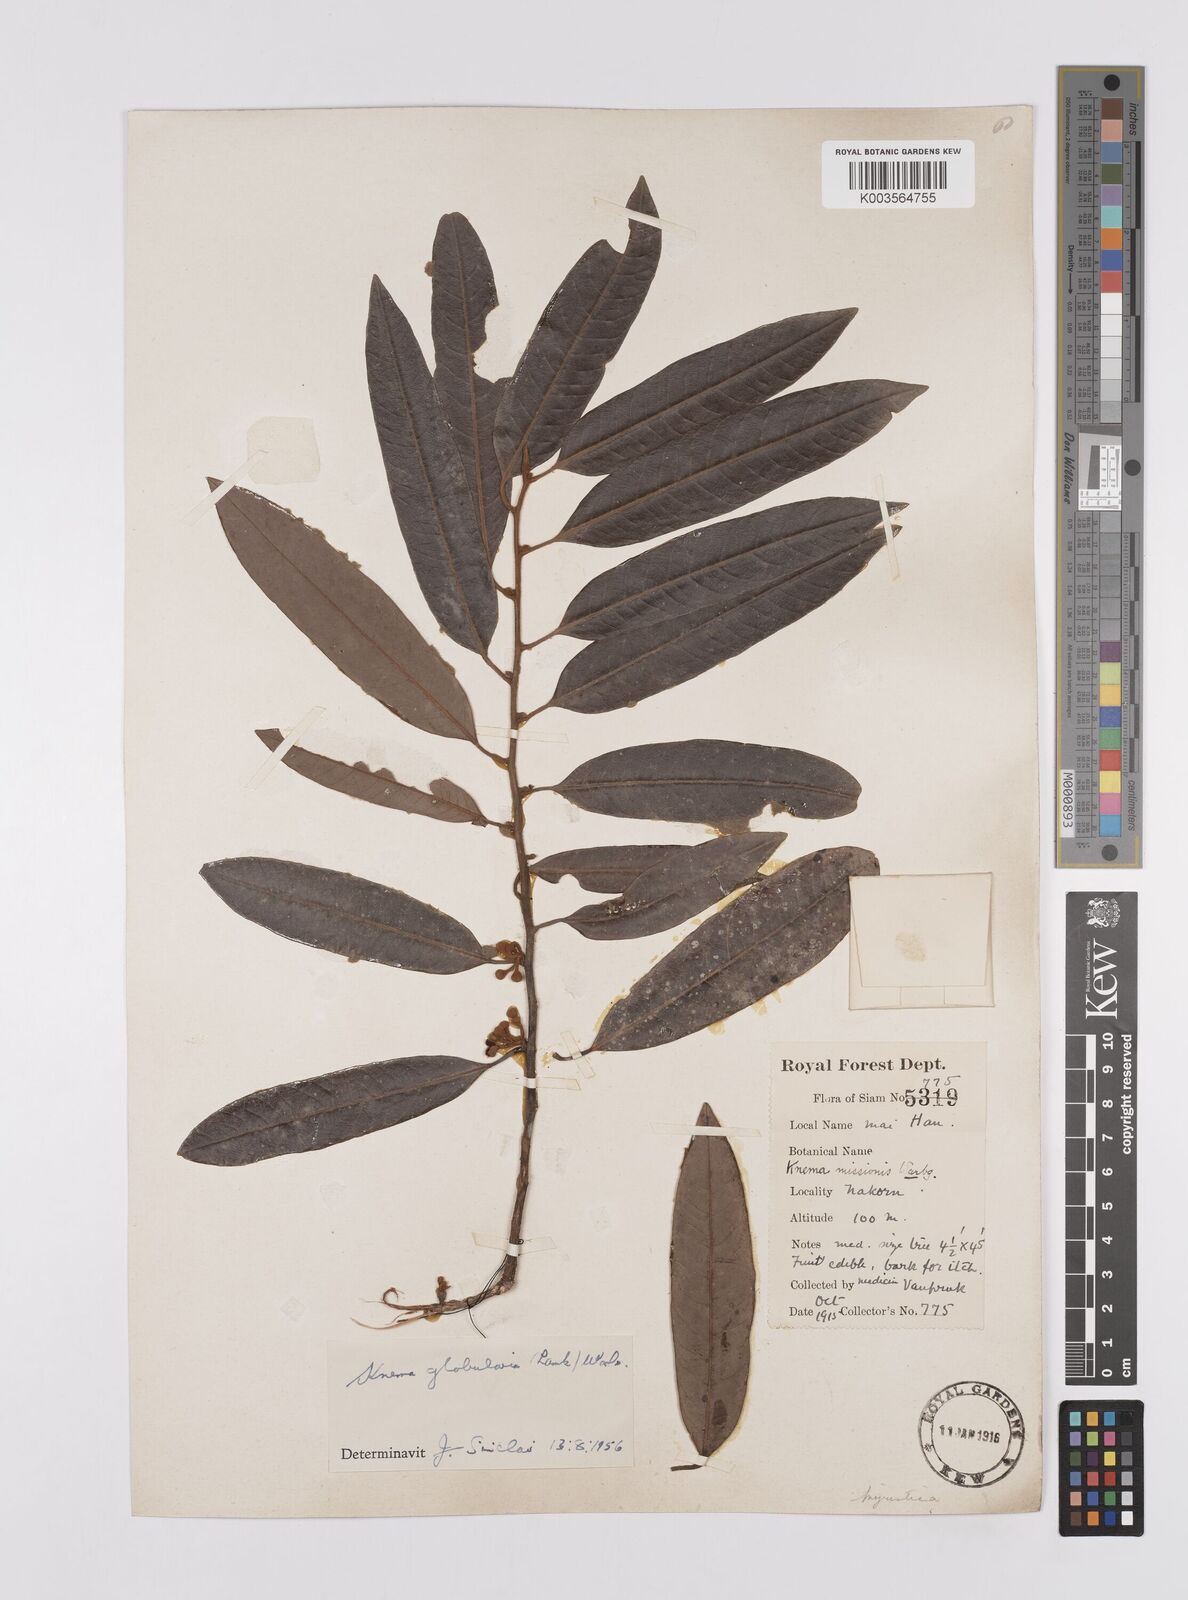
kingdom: Plantae
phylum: Tracheophyta
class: Magnoliopsida
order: Magnoliales
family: Myristicaceae
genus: Knema
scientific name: Knema globularia
